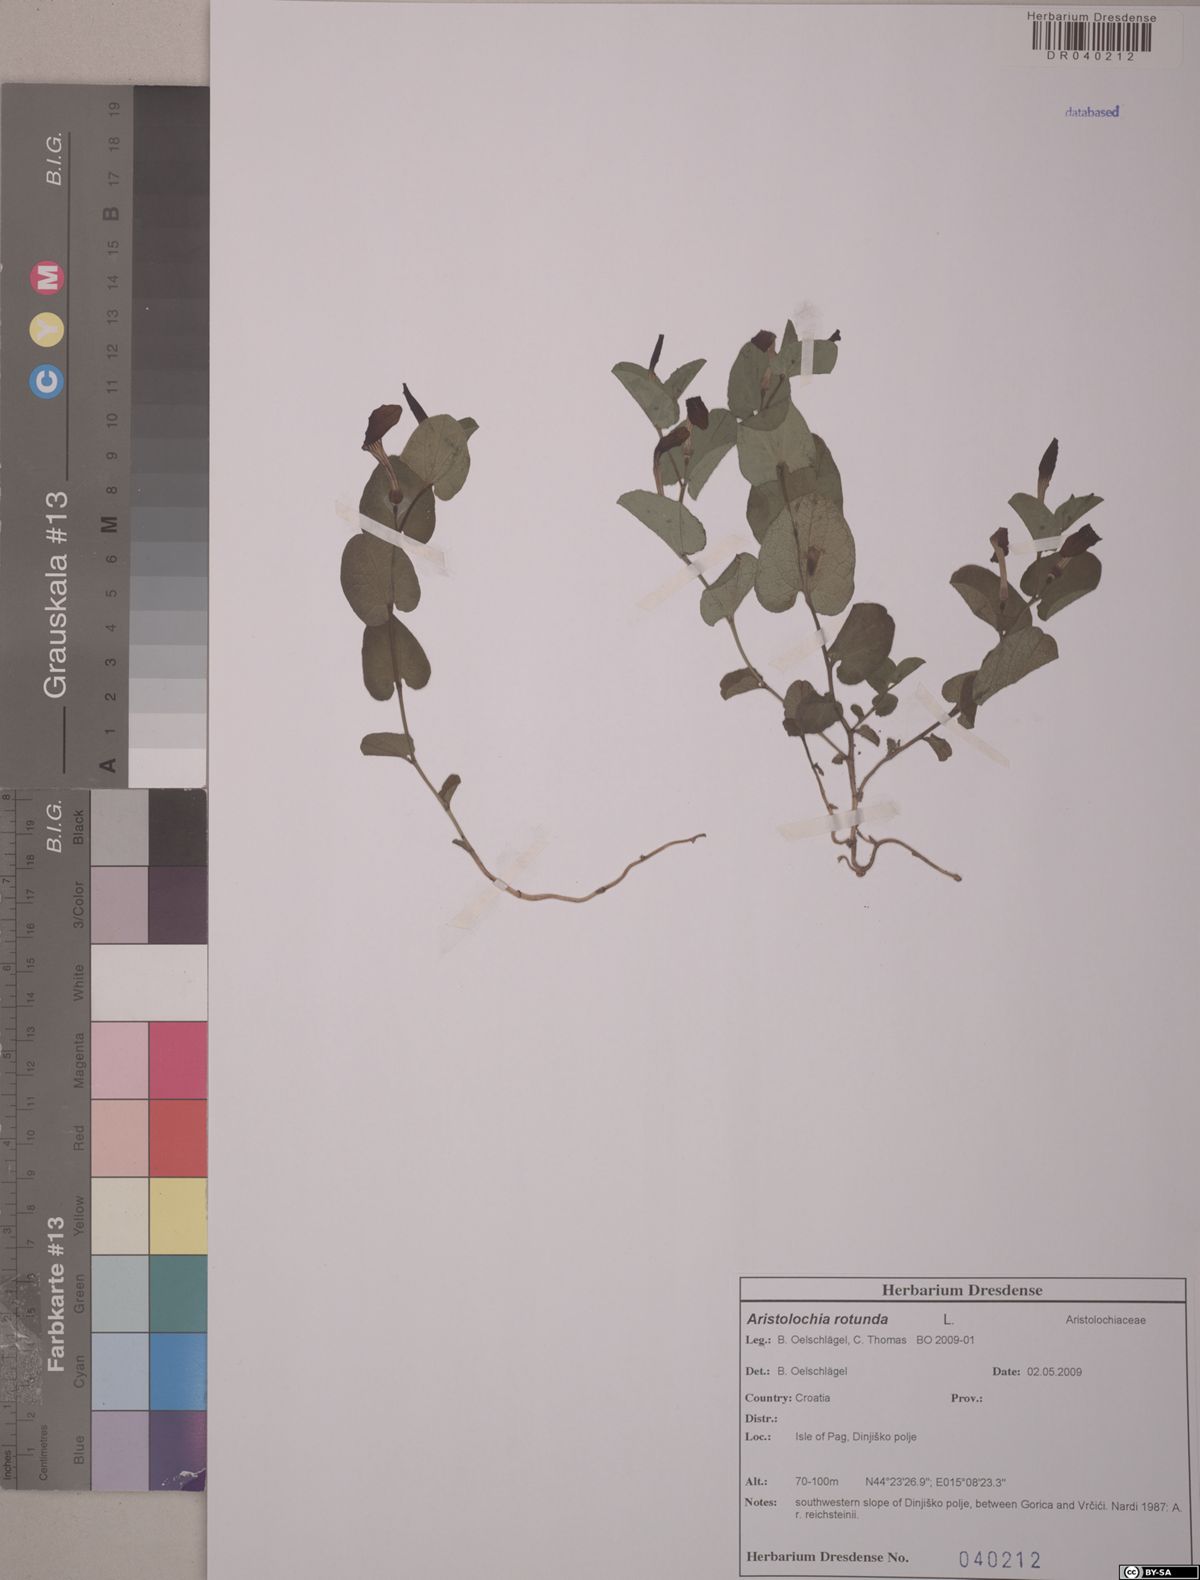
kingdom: Plantae
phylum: Tracheophyta
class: Magnoliopsida
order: Piperales
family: Aristolochiaceae
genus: Aristolochia
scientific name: Aristolochia rotunda
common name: Smearwort
